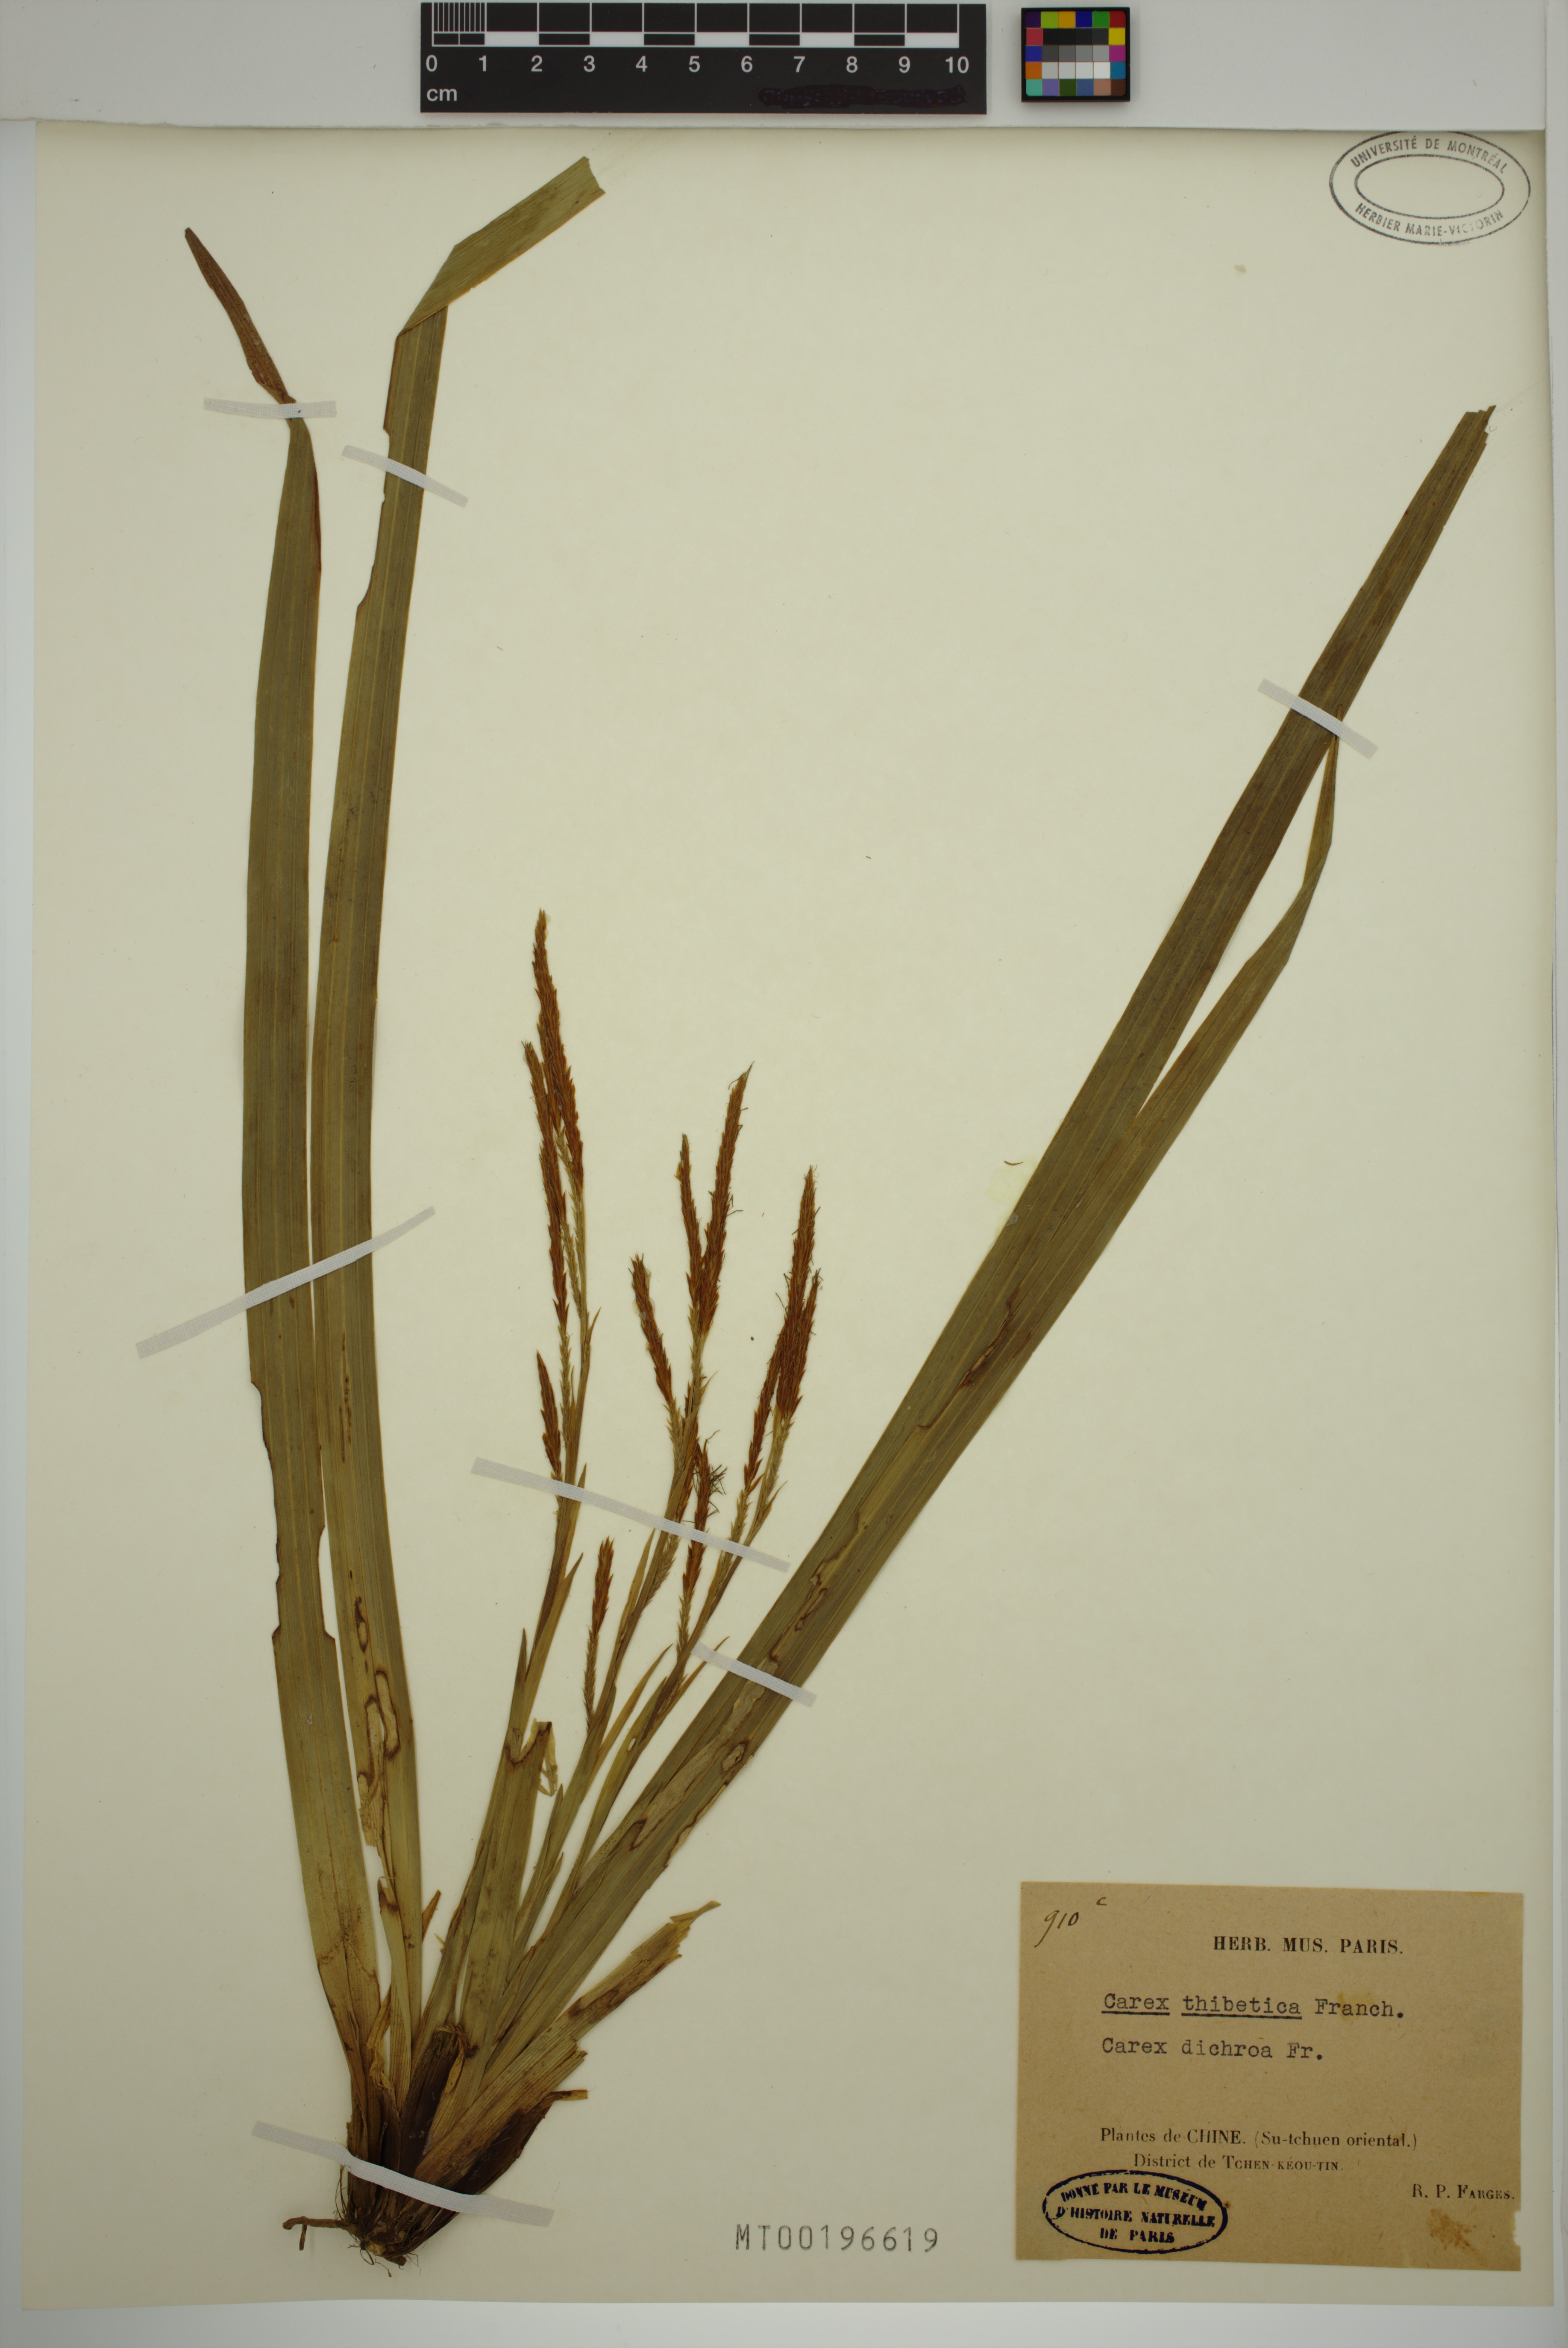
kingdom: Plantae
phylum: Tracheophyta
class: Liliopsida
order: Poales
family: Cyperaceae
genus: Carex
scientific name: Carex thibetica
